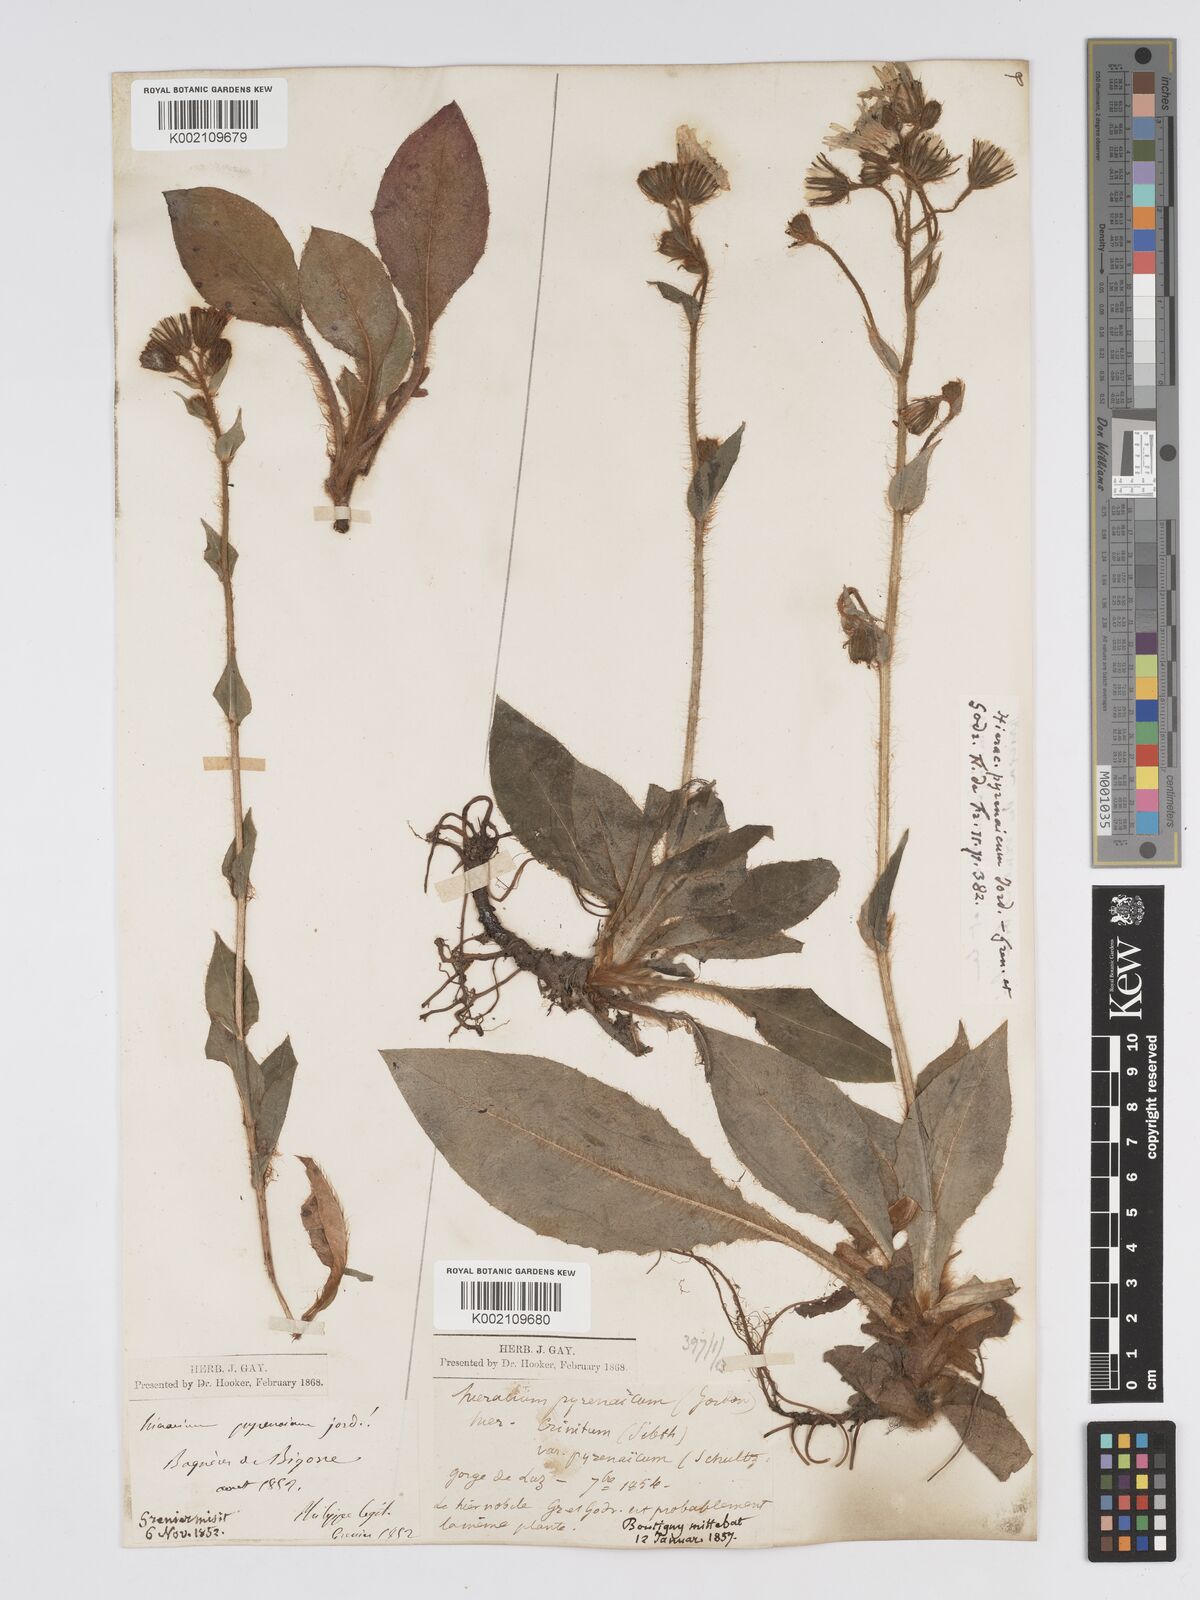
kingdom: Plantae
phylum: Tracheophyta
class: Magnoliopsida
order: Asterales
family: Asteraceae
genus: Hieracium
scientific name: Hieracium nobile
